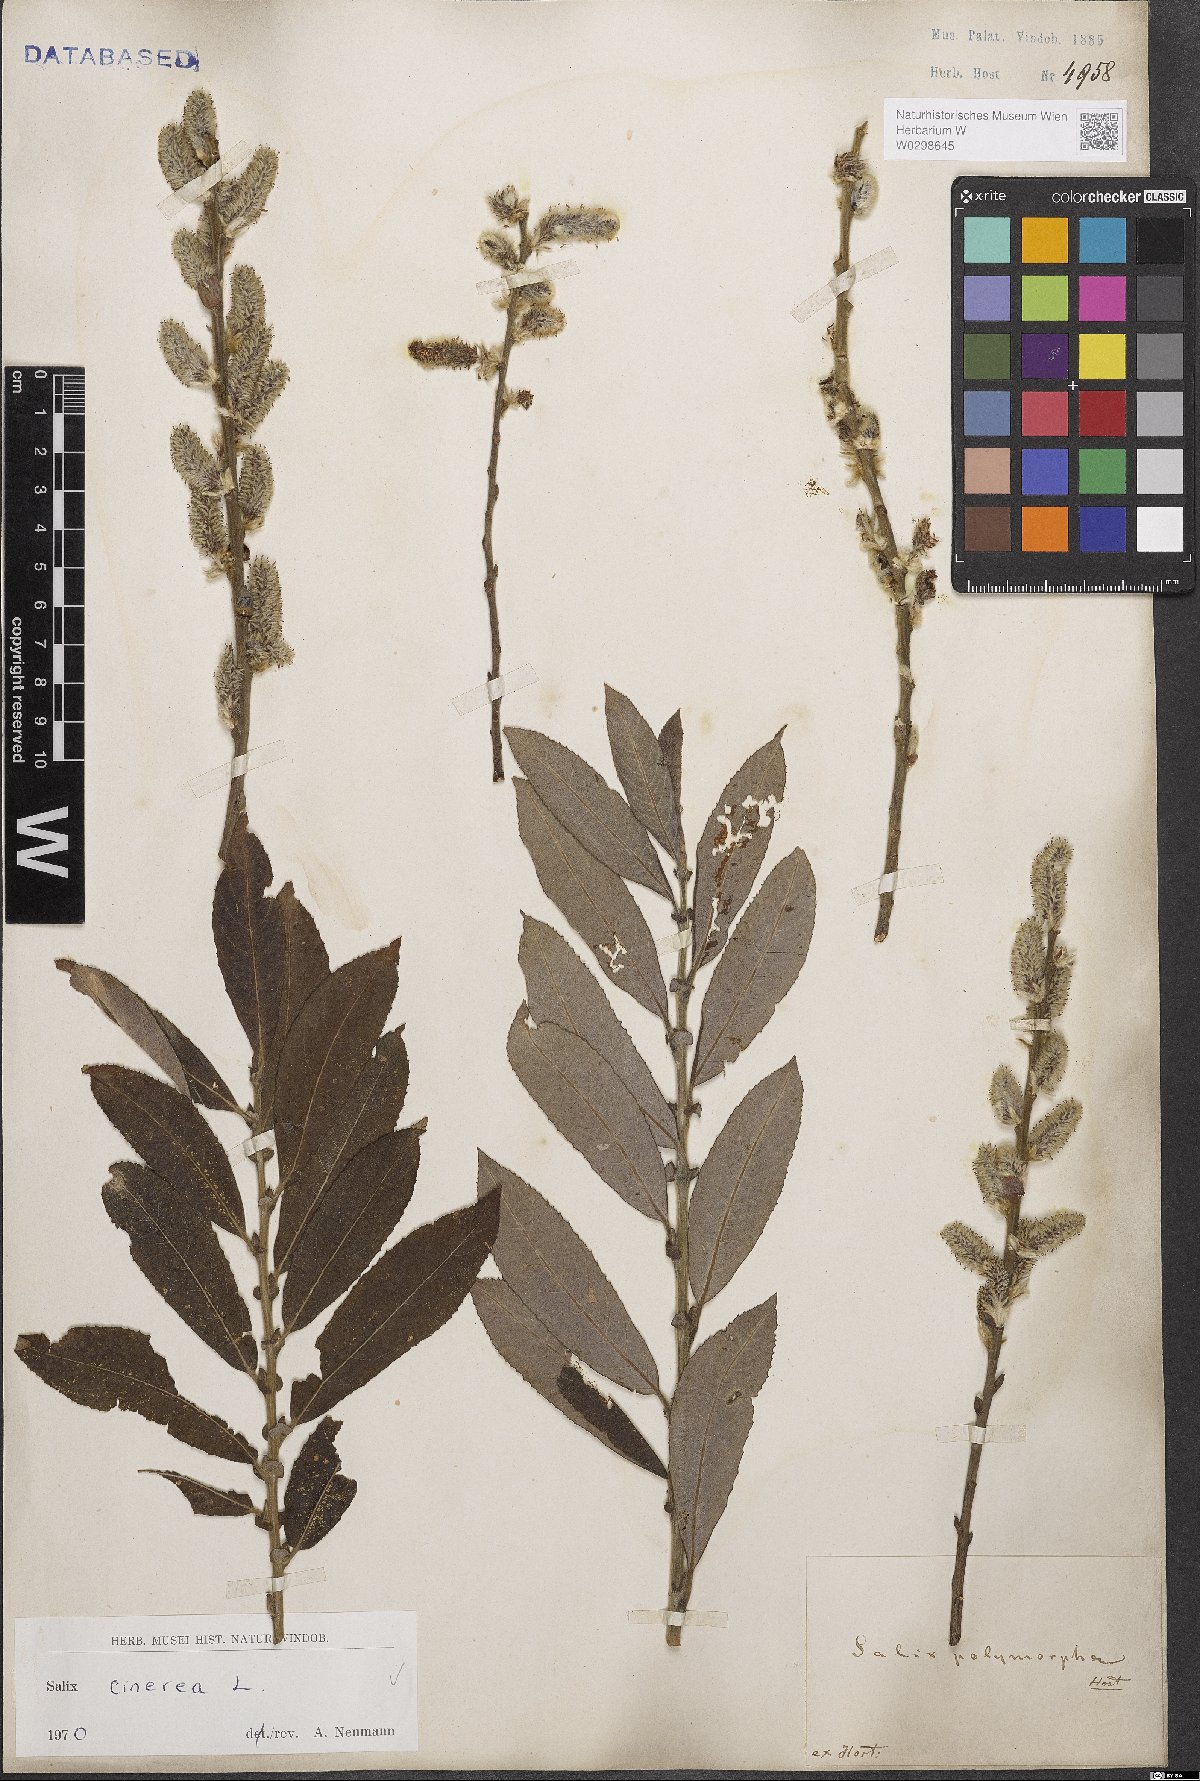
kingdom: Plantae
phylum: Tracheophyta
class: Magnoliopsida
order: Malpighiales
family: Salicaceae
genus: Salix
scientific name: Salix cinerea
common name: Common sallow
